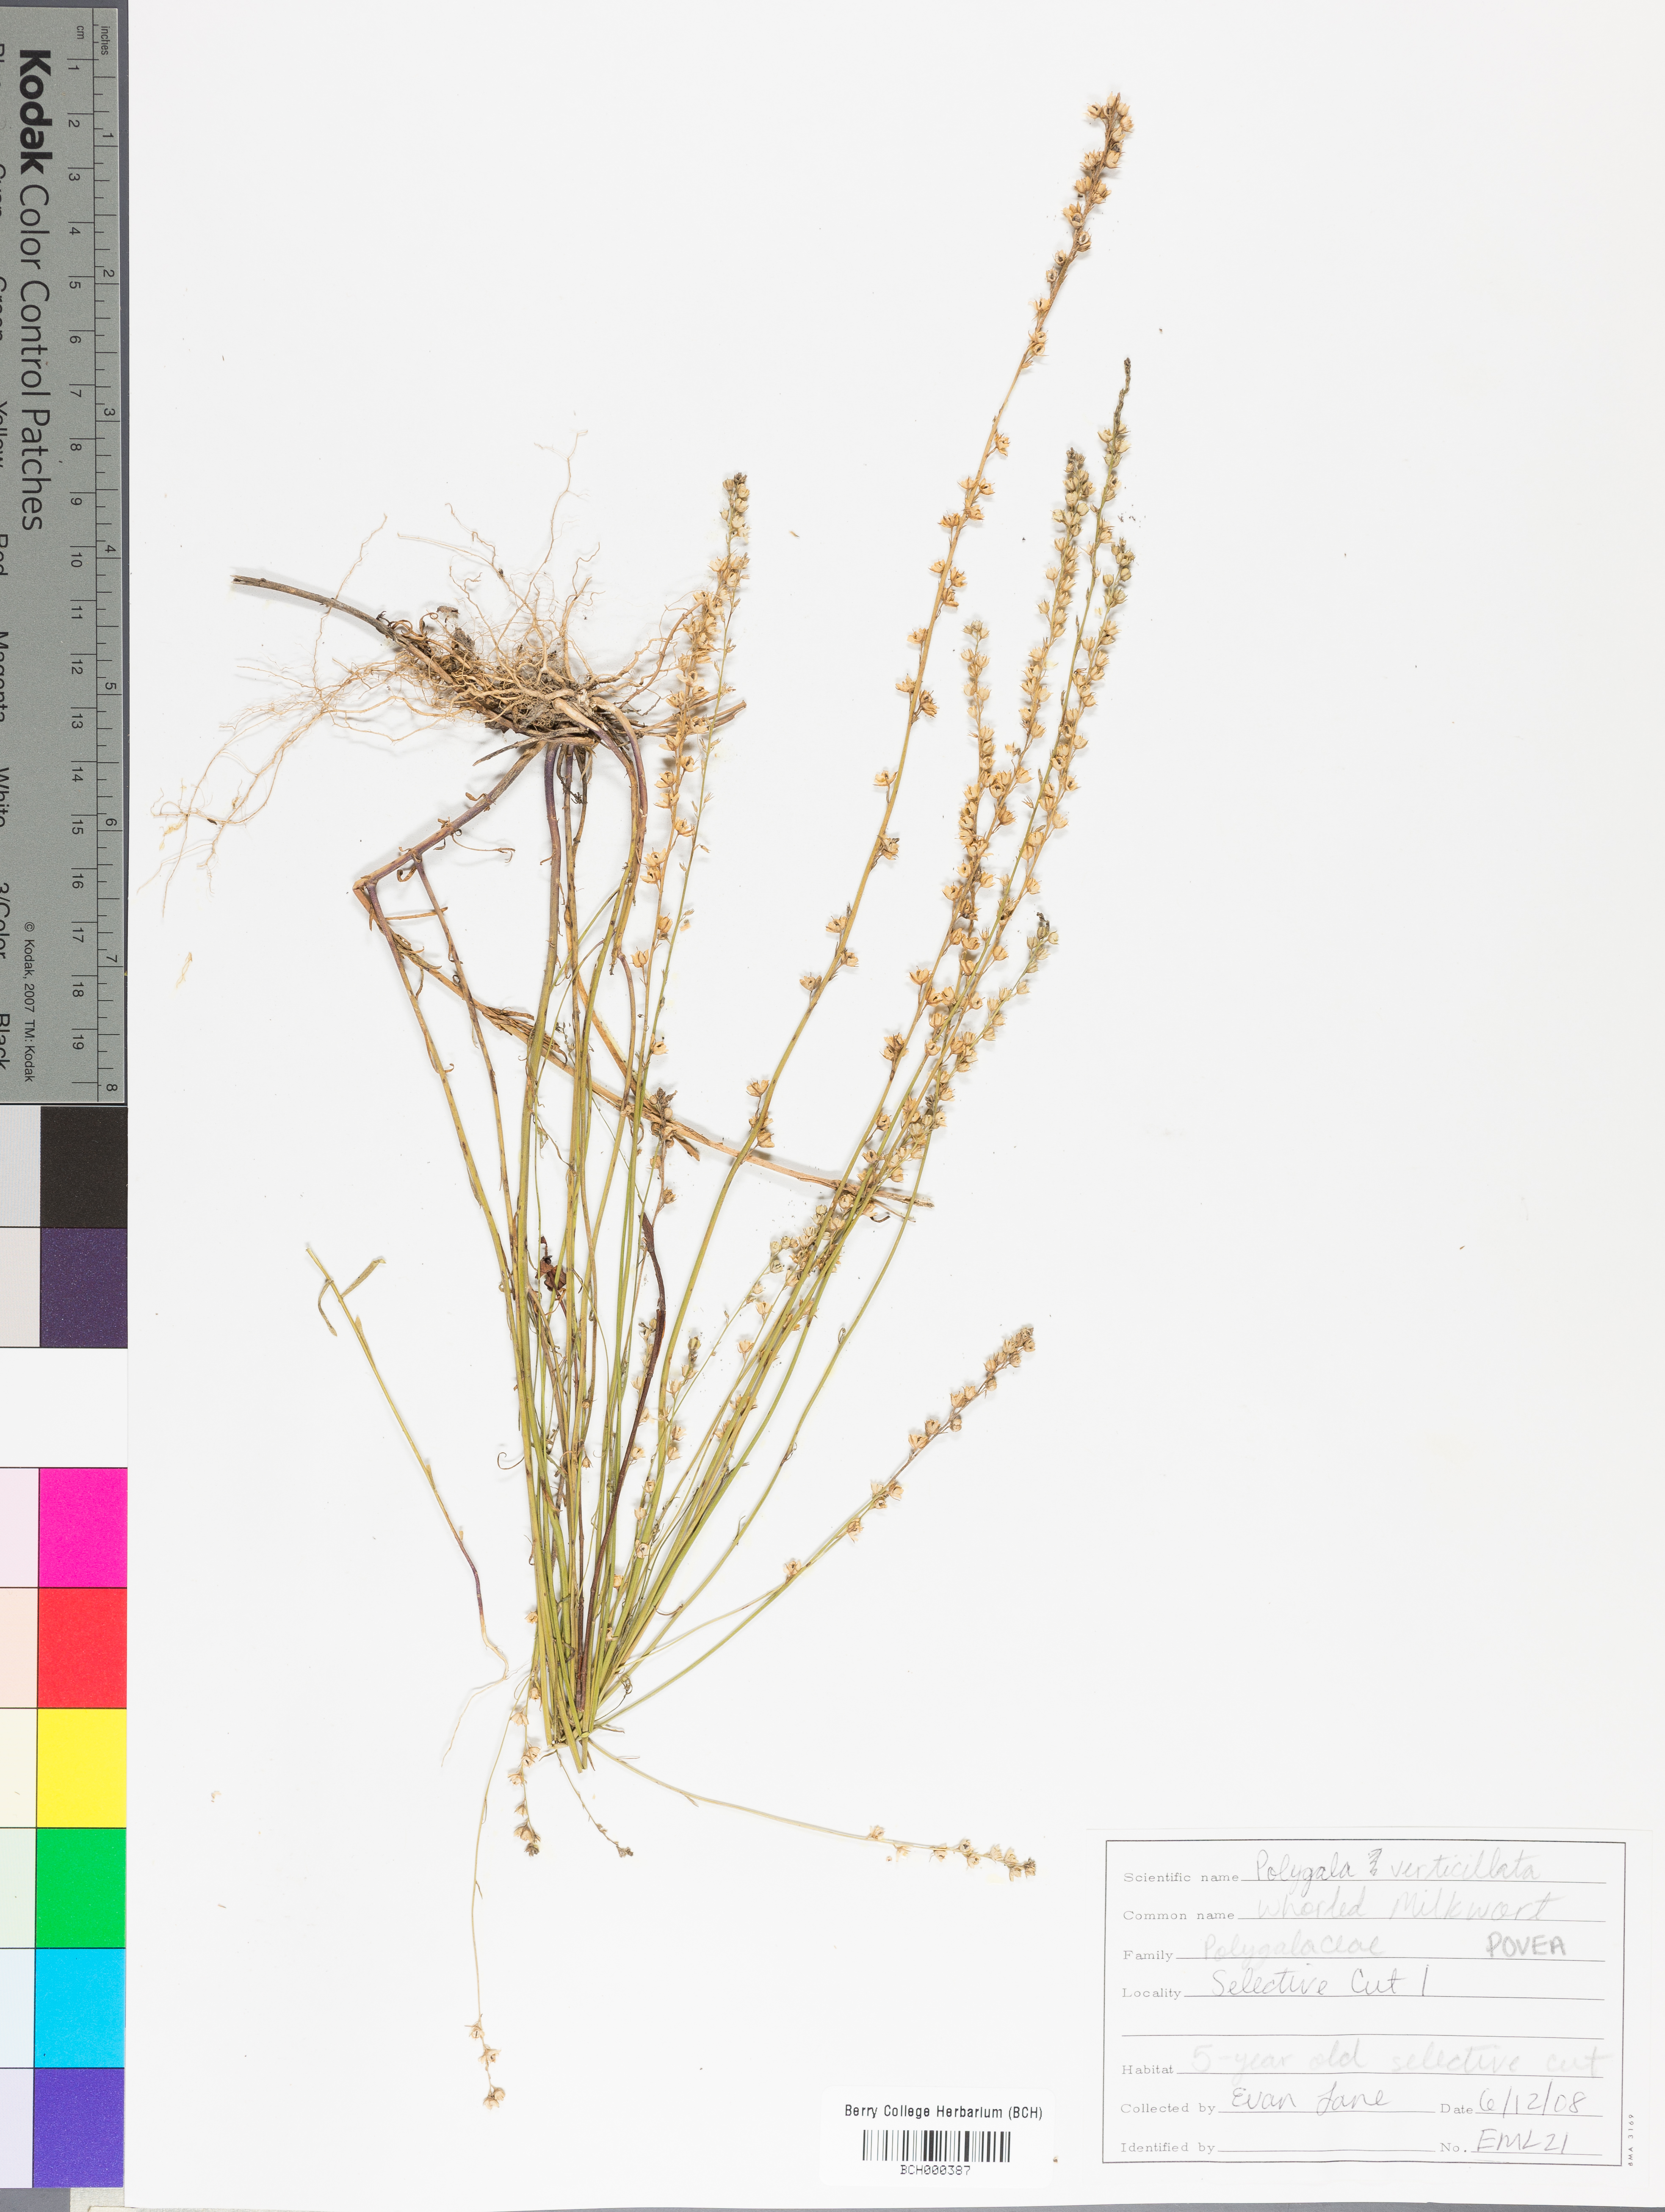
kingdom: Plantae
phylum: Tracheophyta
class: Magnoliopsida
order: Fabales
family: Polygalaceae
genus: Polygala
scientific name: Polygala ambigua
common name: Alternate milkwort
